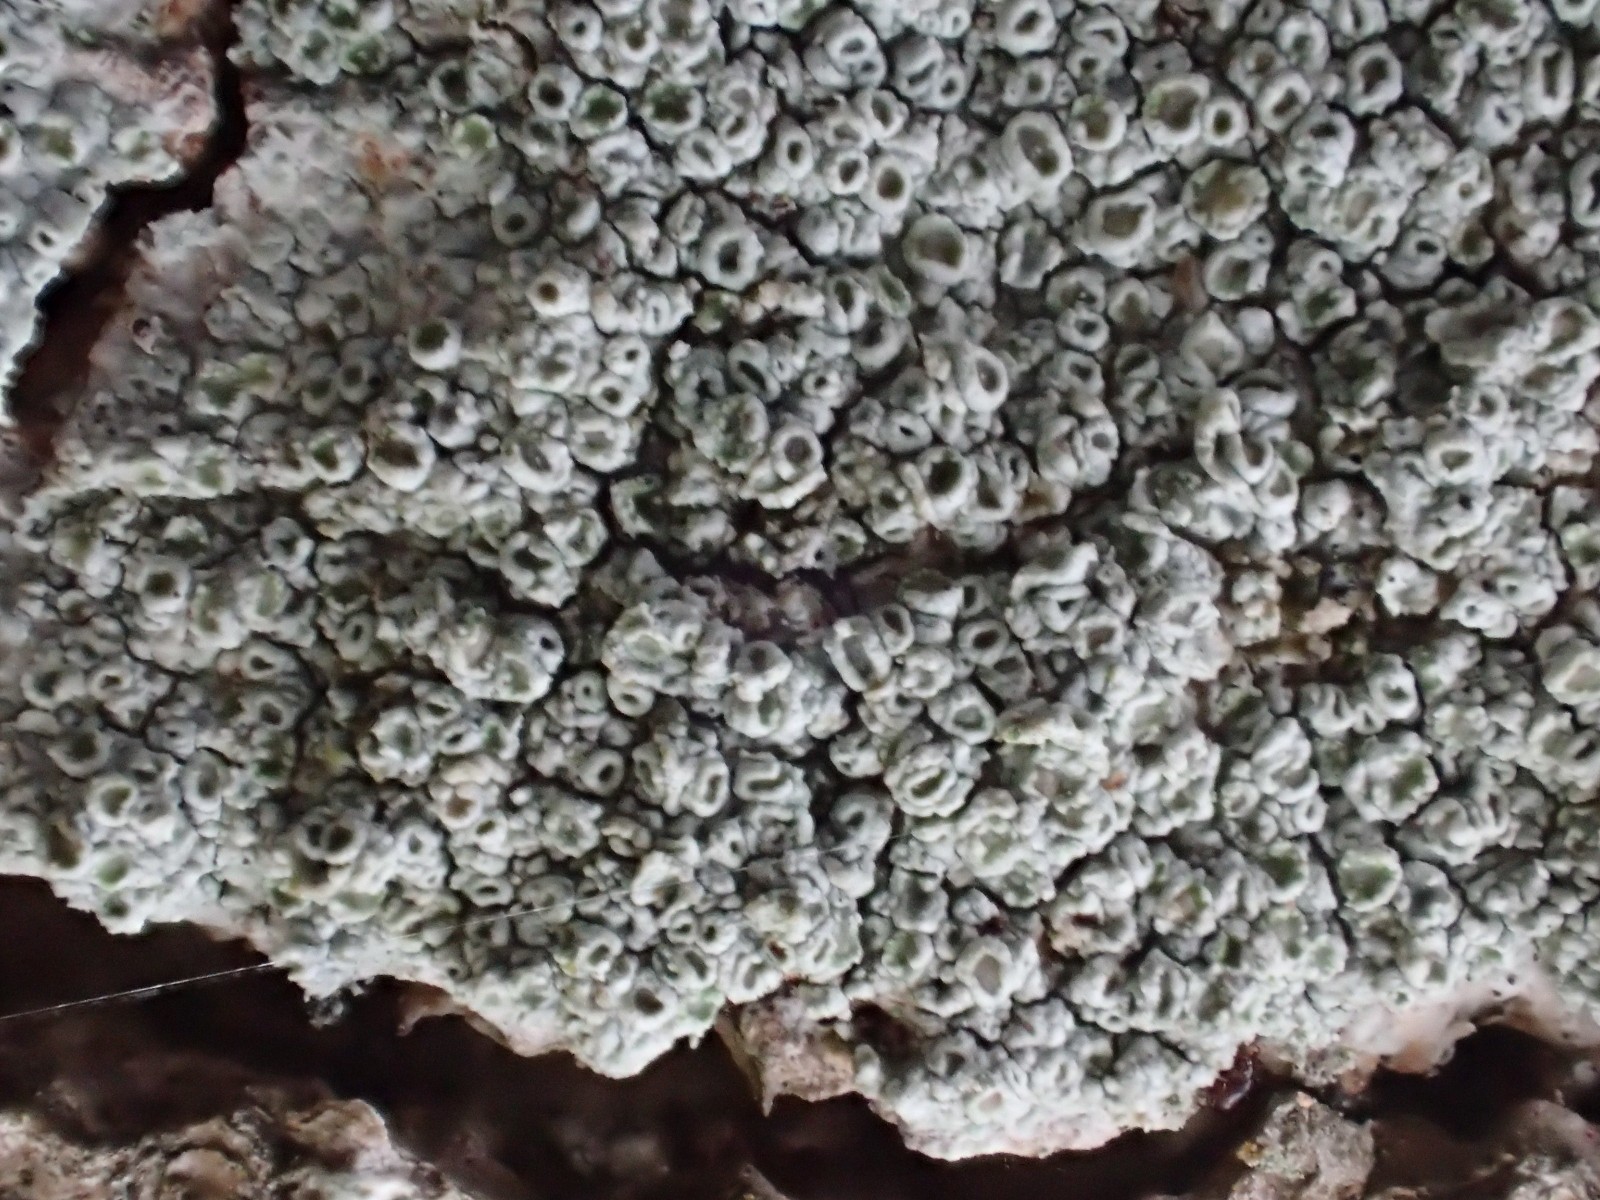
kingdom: Fungi
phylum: Ascomycota
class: Lecanoromycetes
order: Pertusariales
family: Pertusariaceae
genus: Pertusaria
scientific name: Pertusaria hymenea
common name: åben prikvortelav
